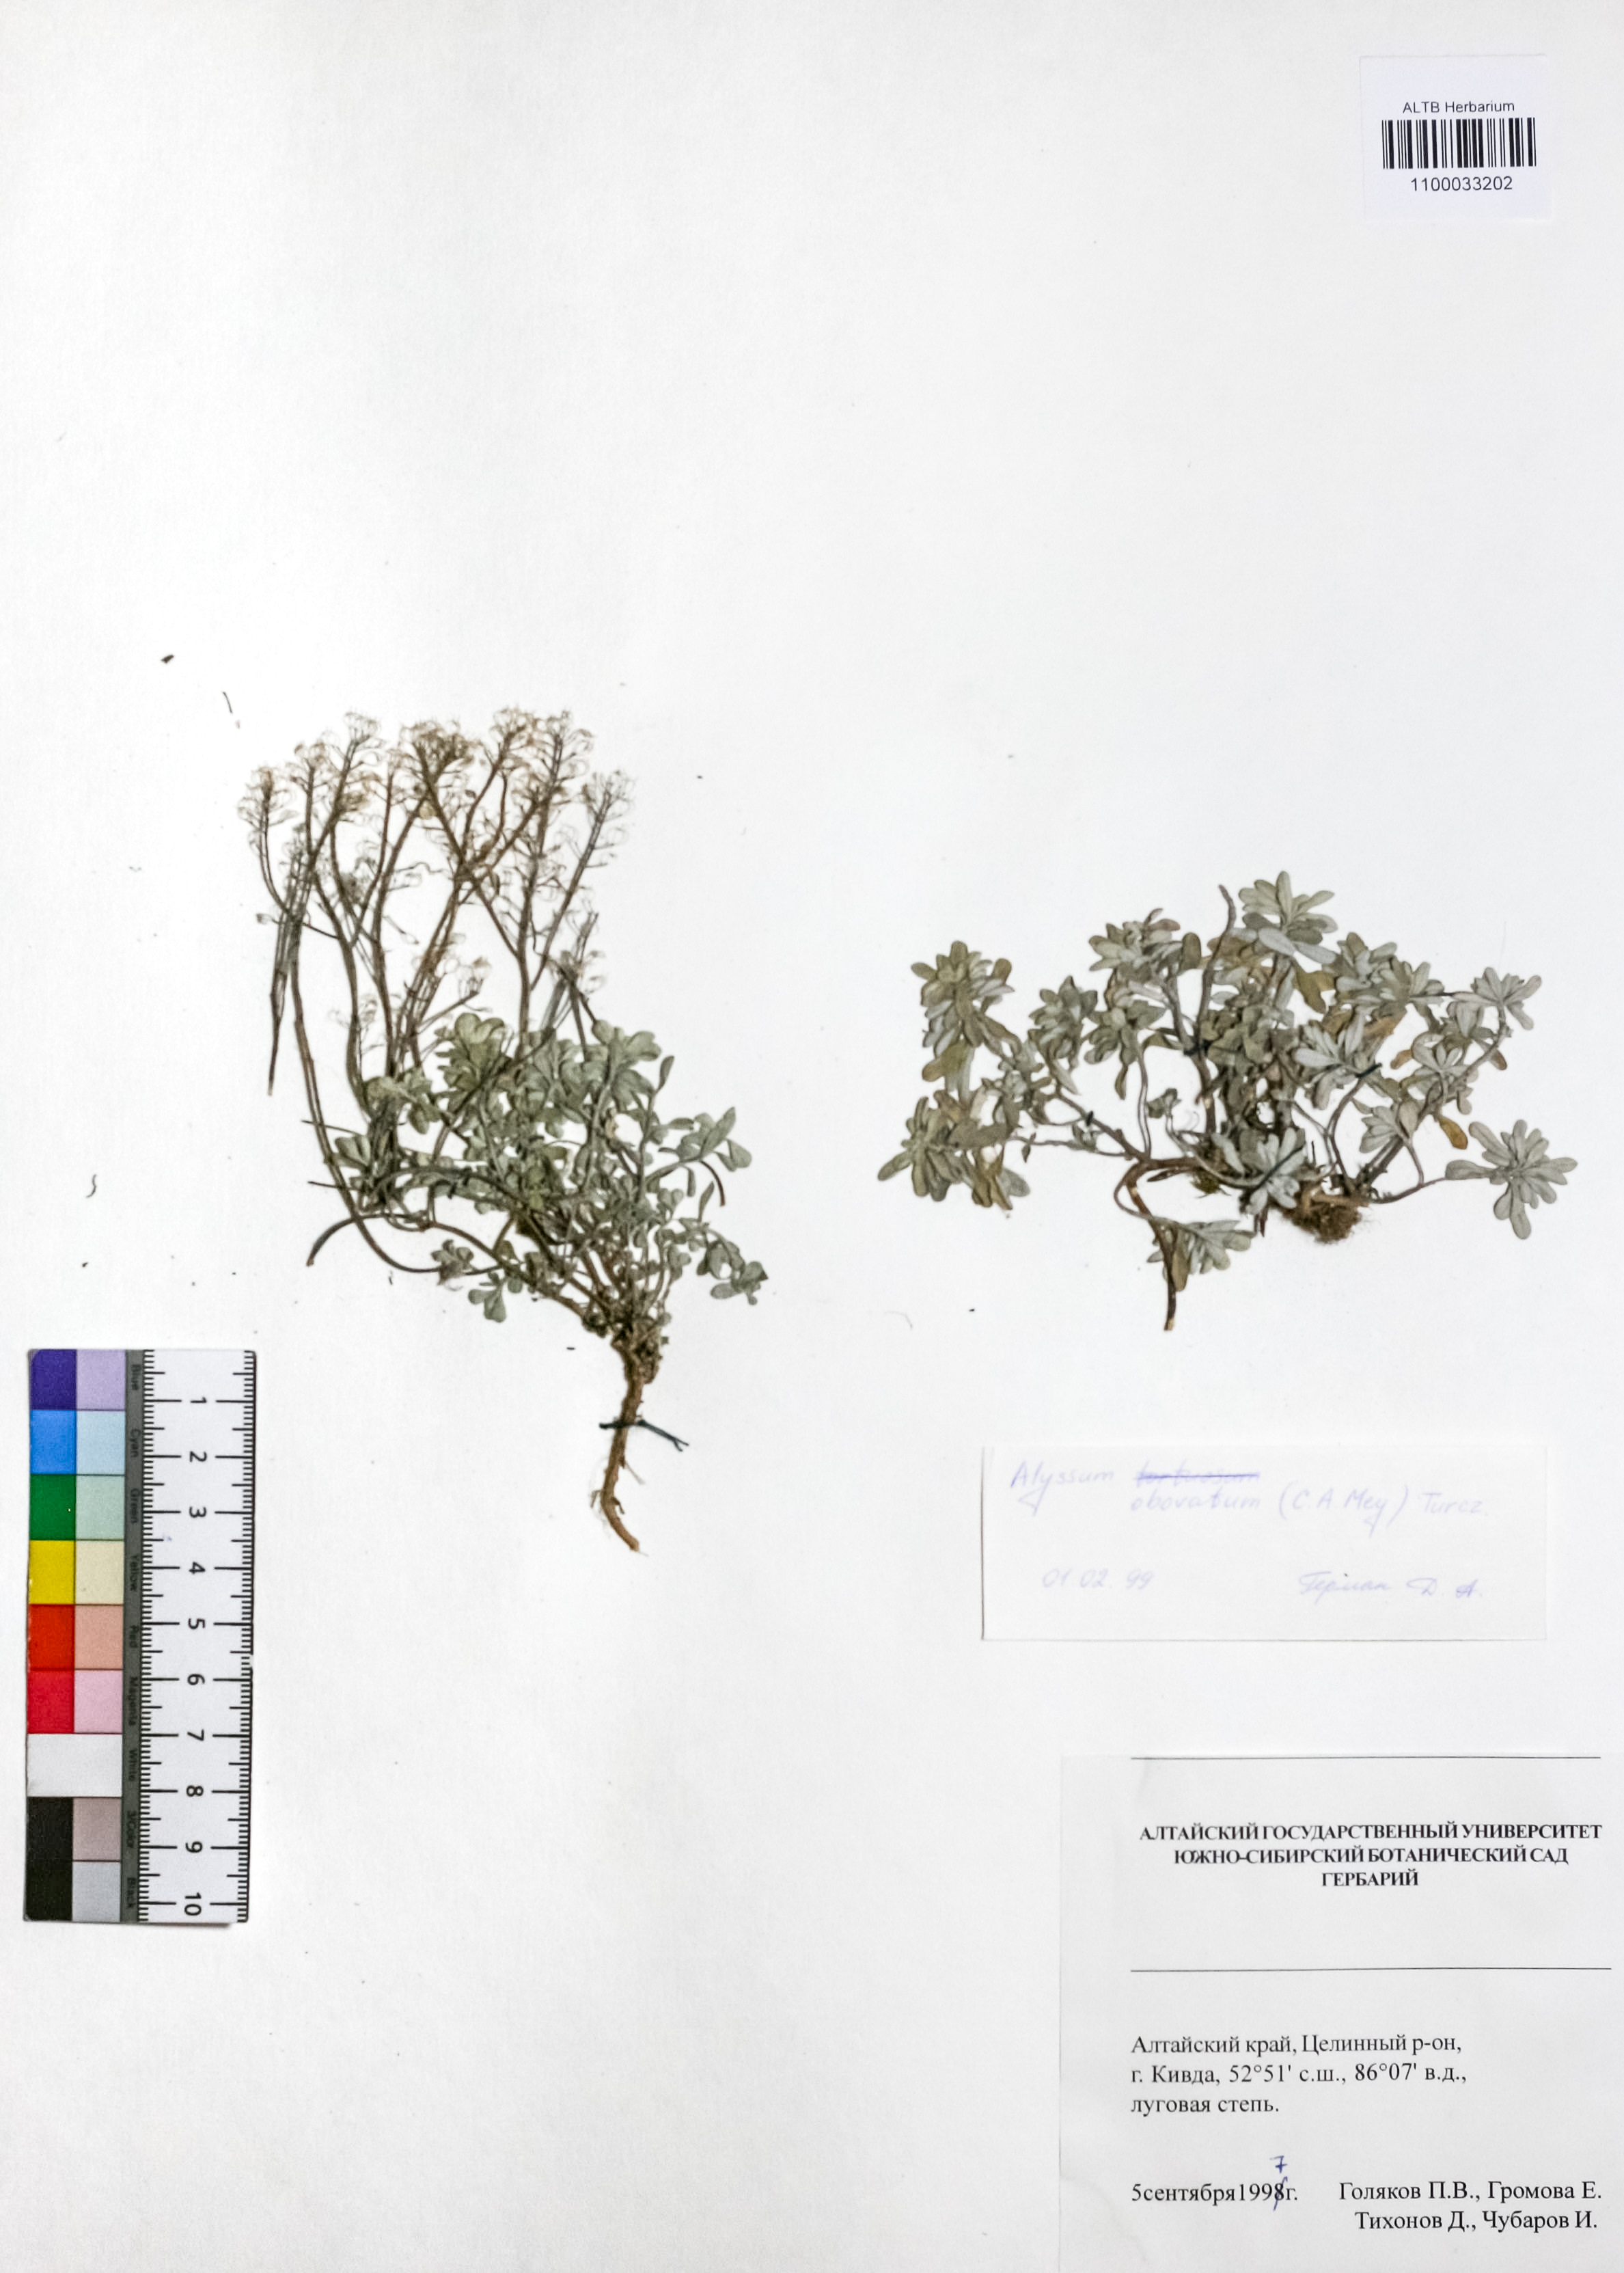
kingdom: Plantae
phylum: Tracheophyta
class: Magnoliopsida
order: Brassicales
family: Brassicaceae
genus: Odontarrhena
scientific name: Odontarrhena obovata
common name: American alyssum
